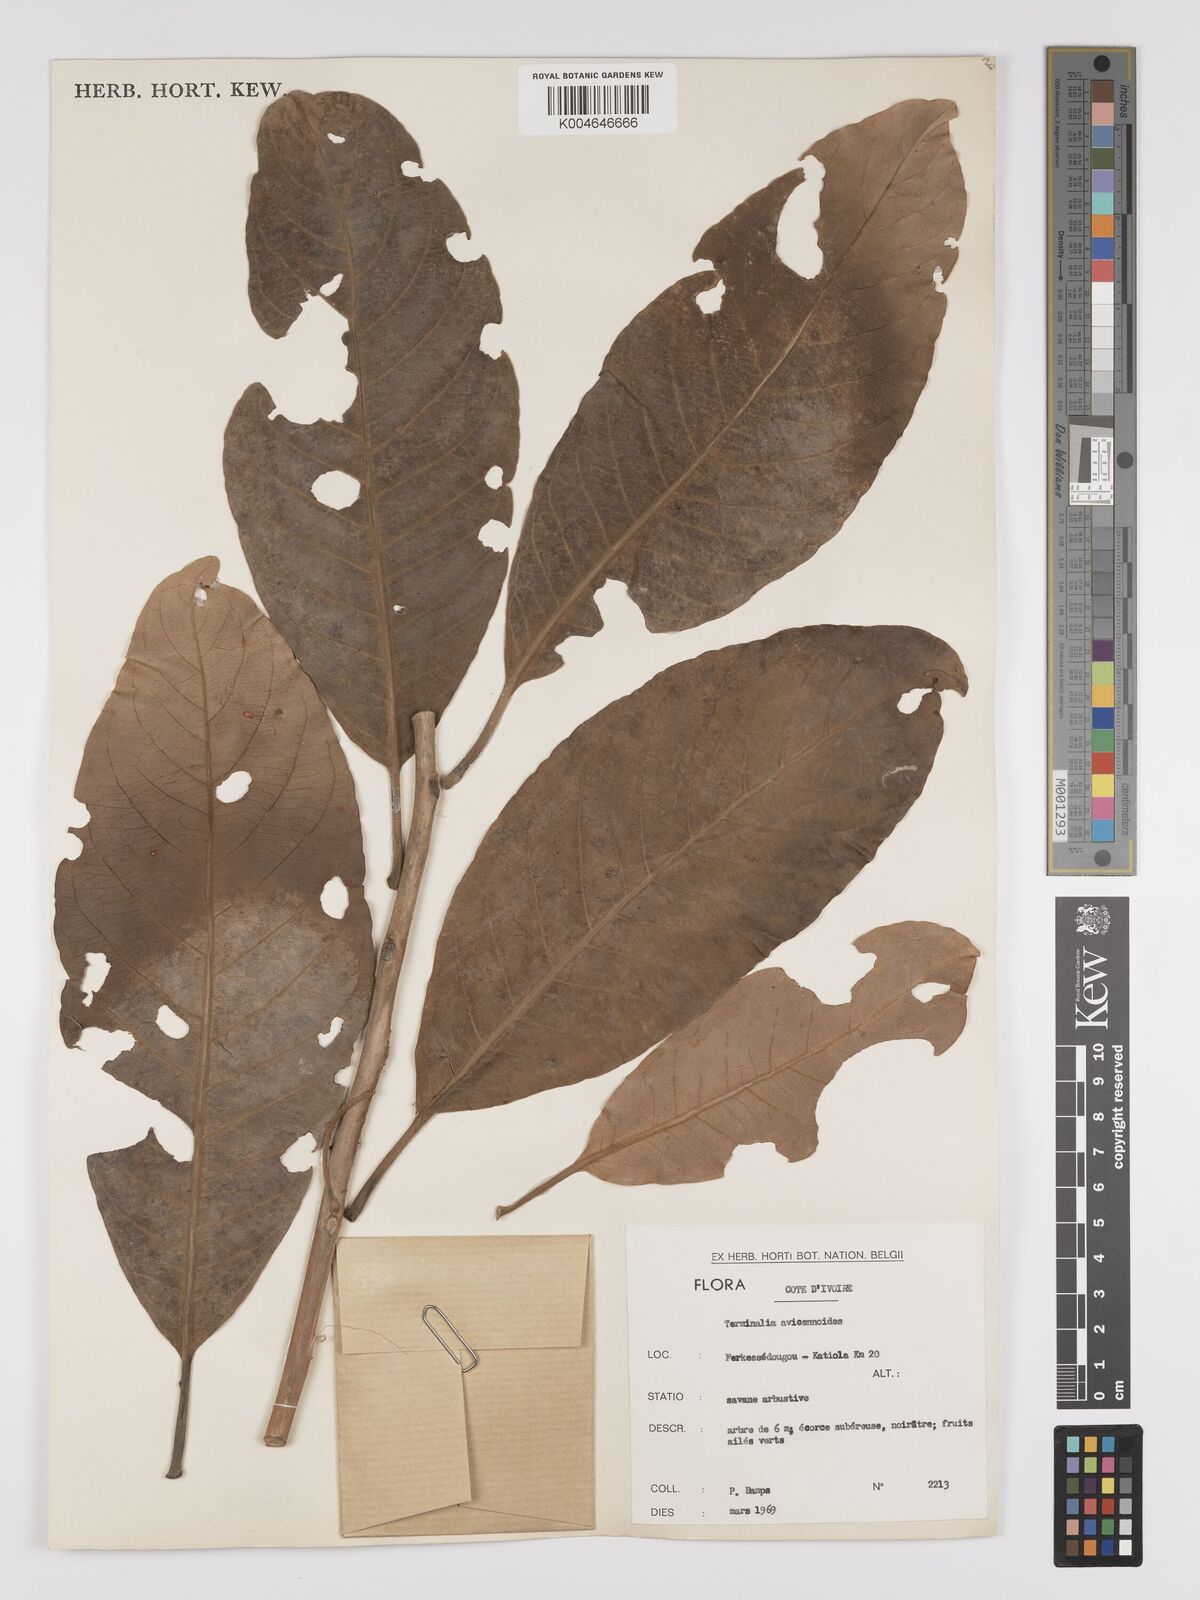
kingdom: Plantae
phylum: Tracheophyta
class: Magnoliopsida
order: Myrtales
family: Combretaceae
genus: Terminalia
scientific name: Terminalia avicennioides
